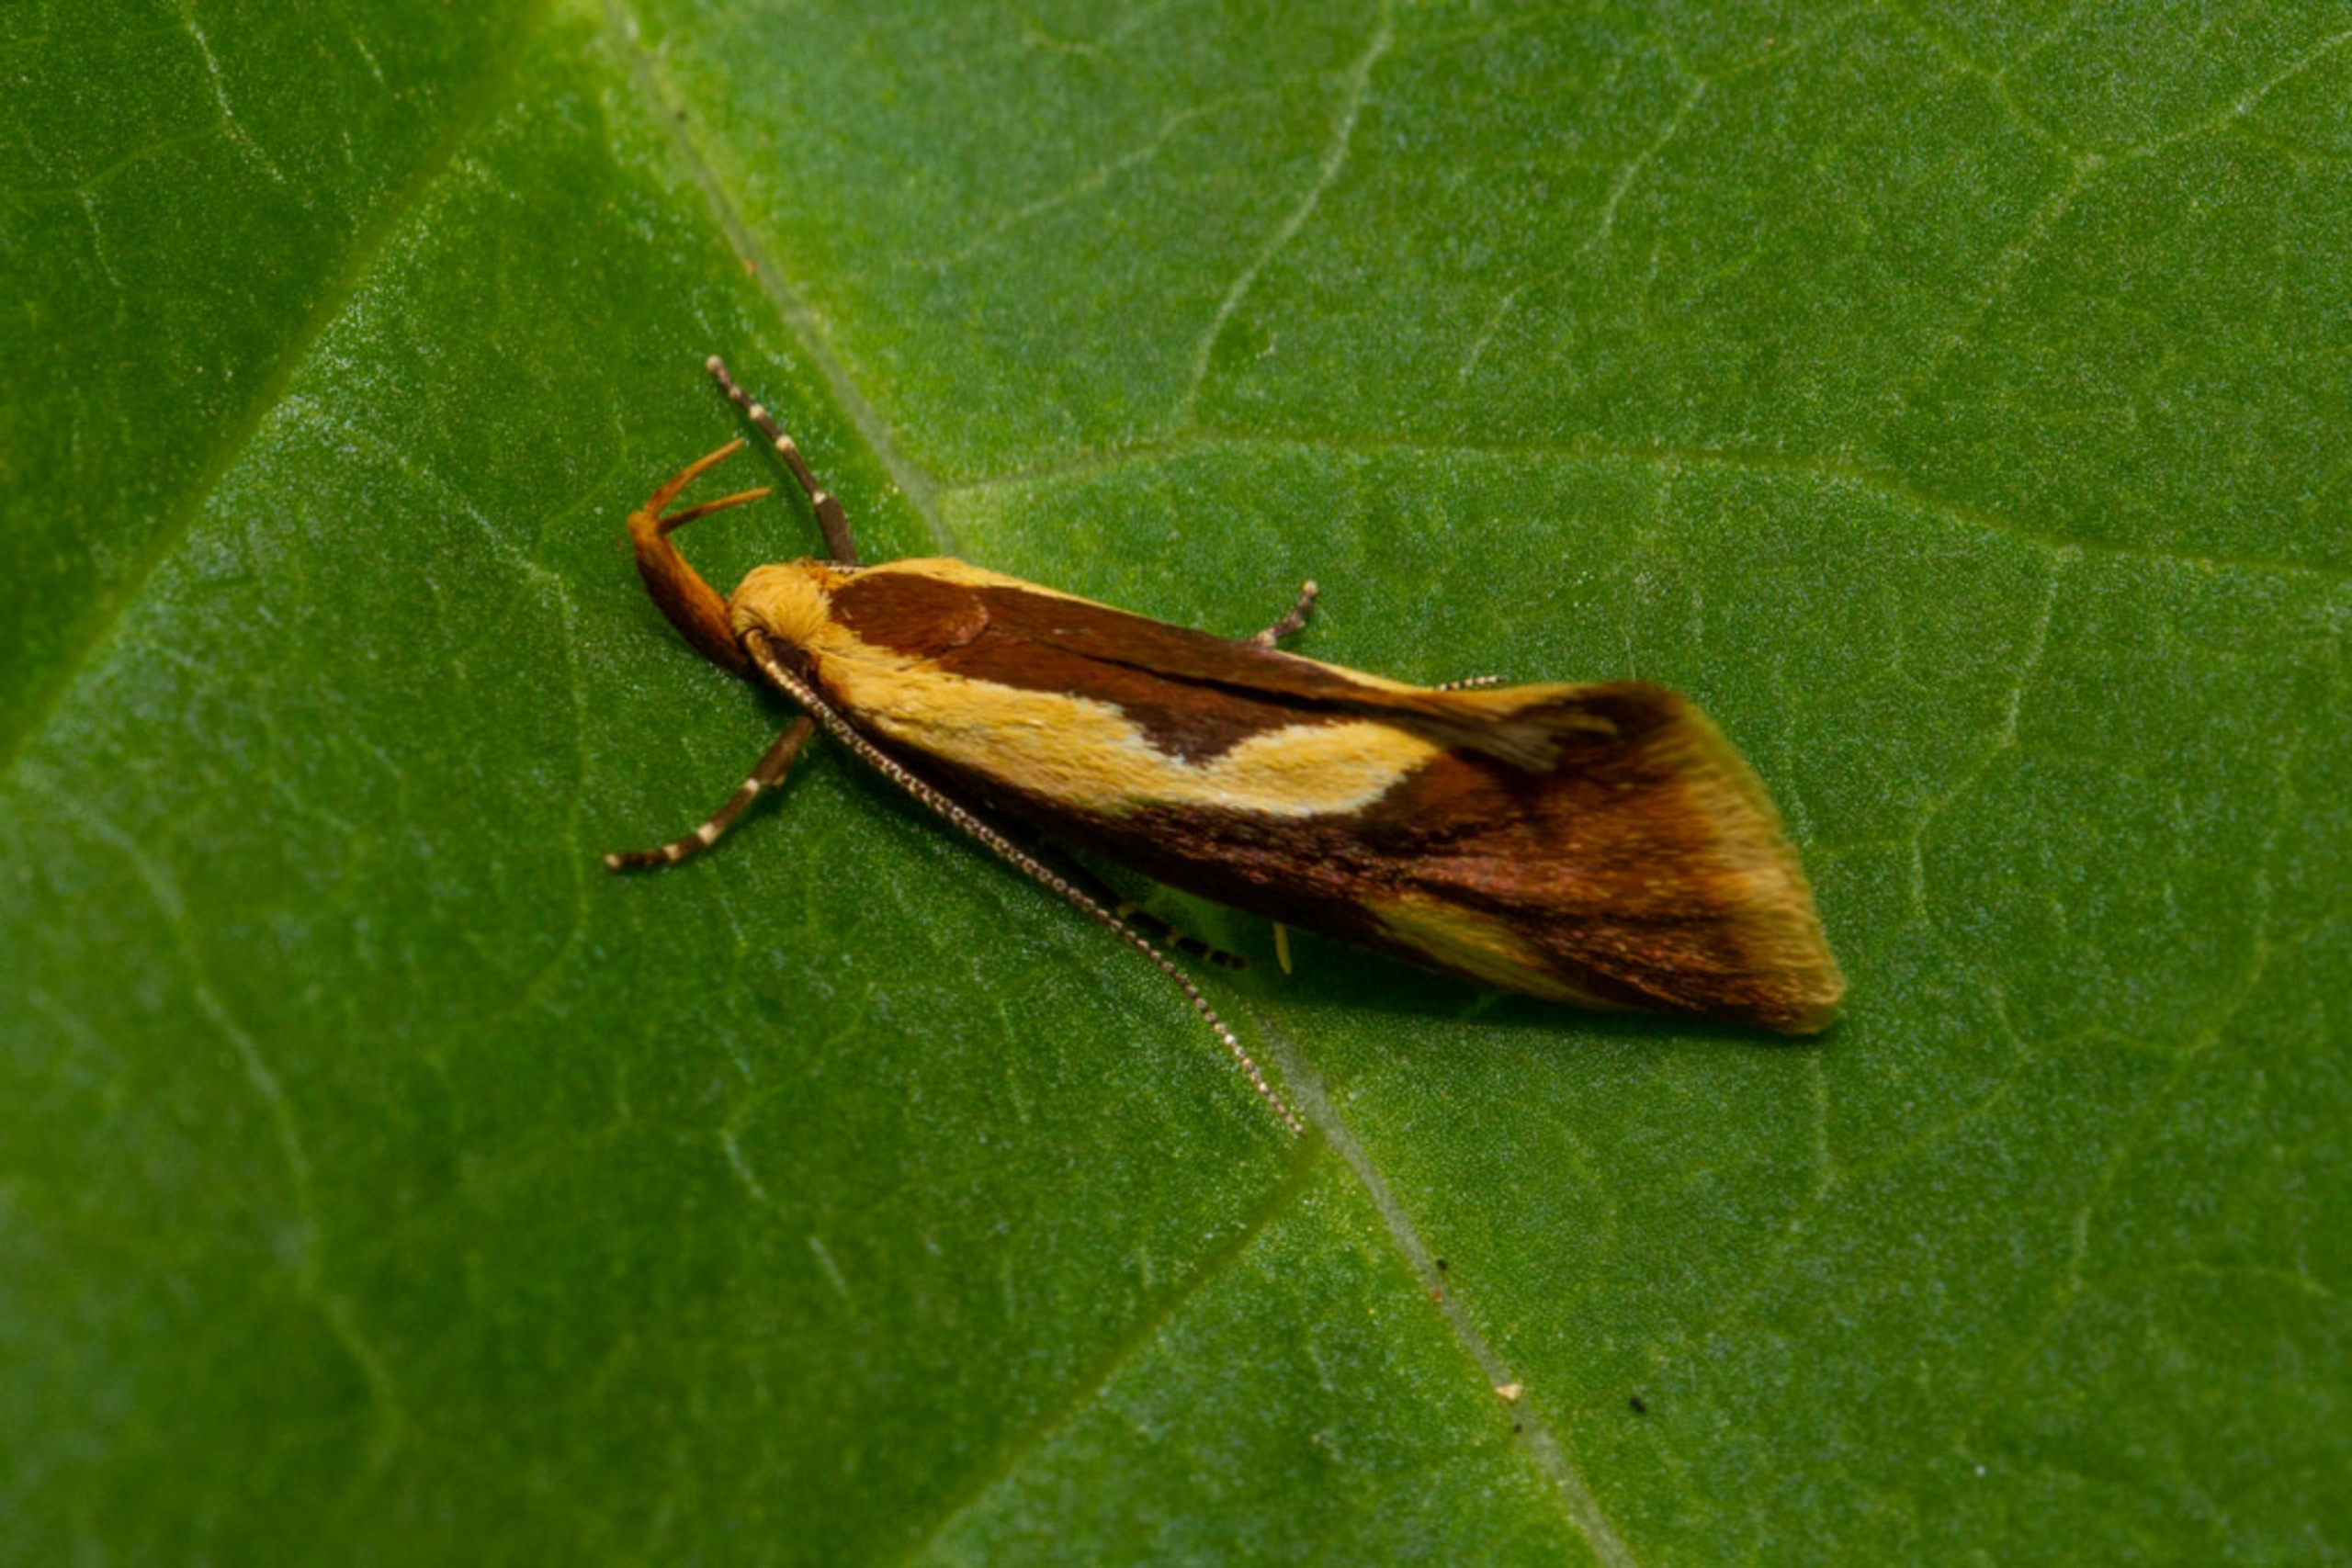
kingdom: Animalia
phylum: Arthropoda
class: Insecta
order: Lepidoptera
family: Oecophoridae
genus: Harpella
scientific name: Harpella forficella
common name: Kæmpeprydvinge
